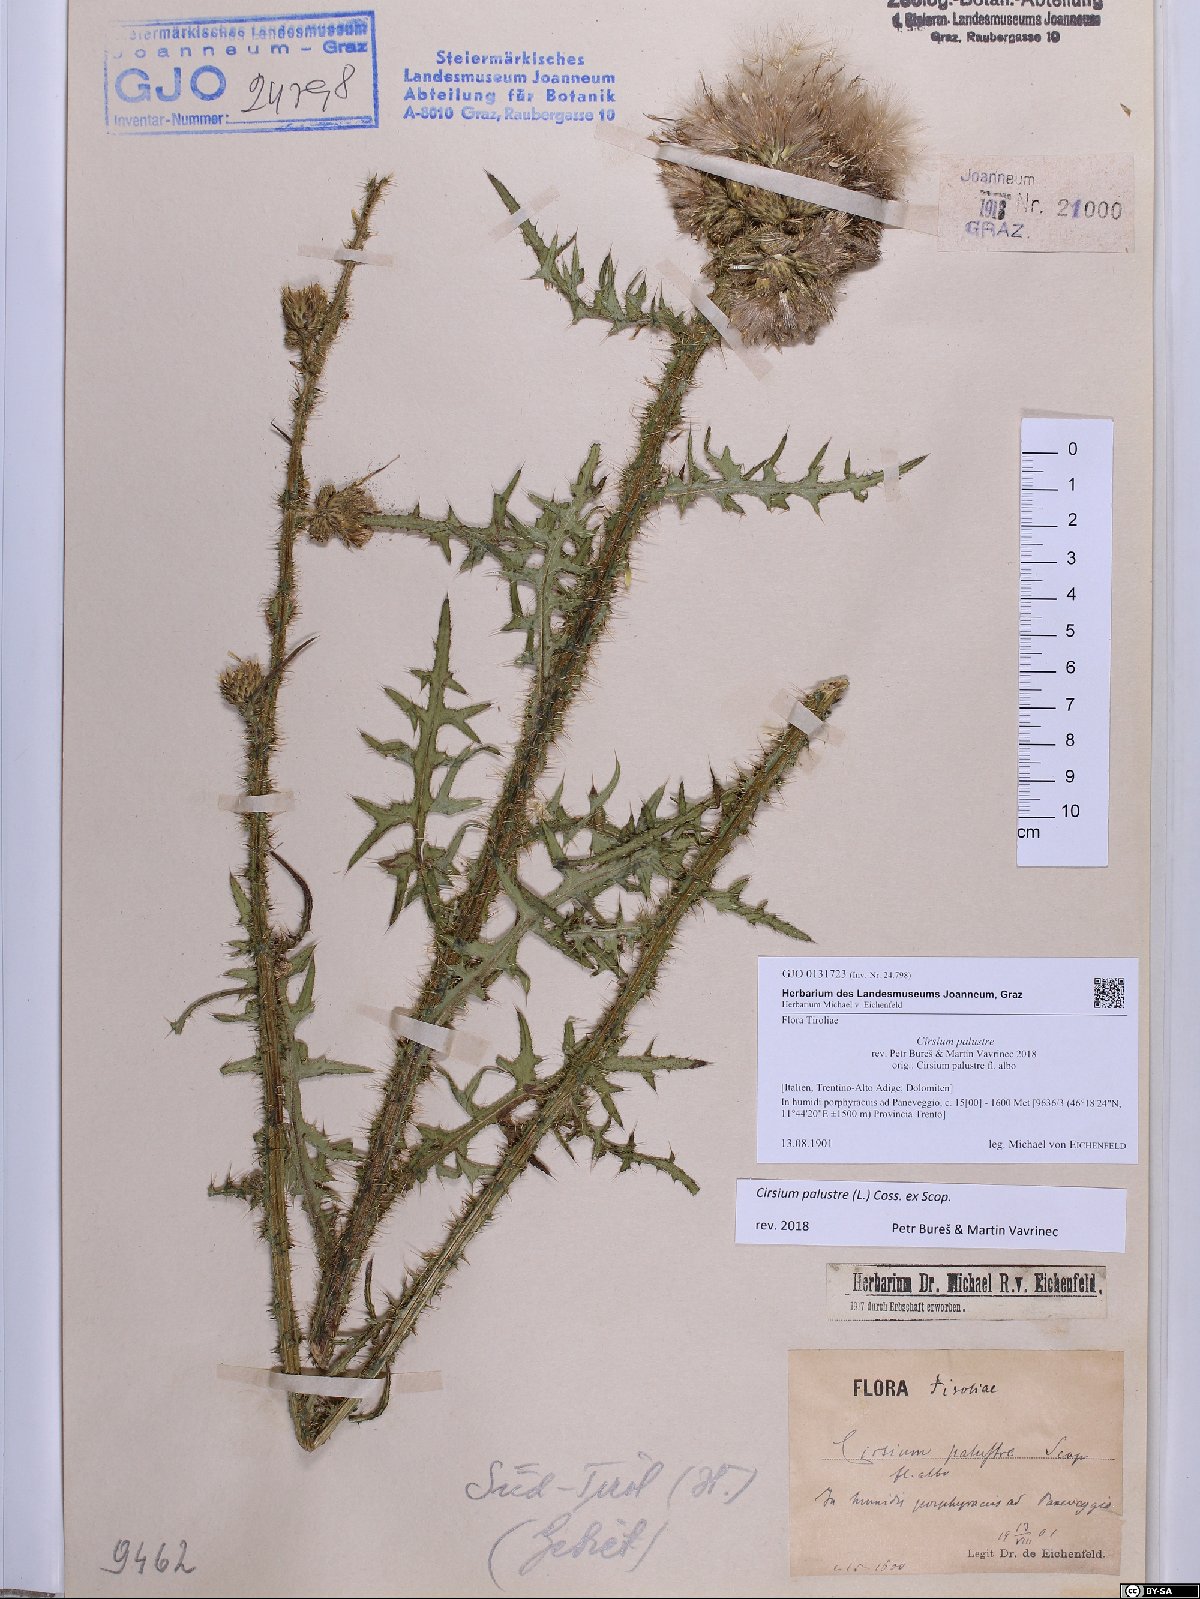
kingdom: Plantae
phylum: Tracheophyta
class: Magnoliopsida
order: Asterales
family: Asteraceae
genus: Cirsium
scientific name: Cirsium palustre
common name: Marsh thistle
